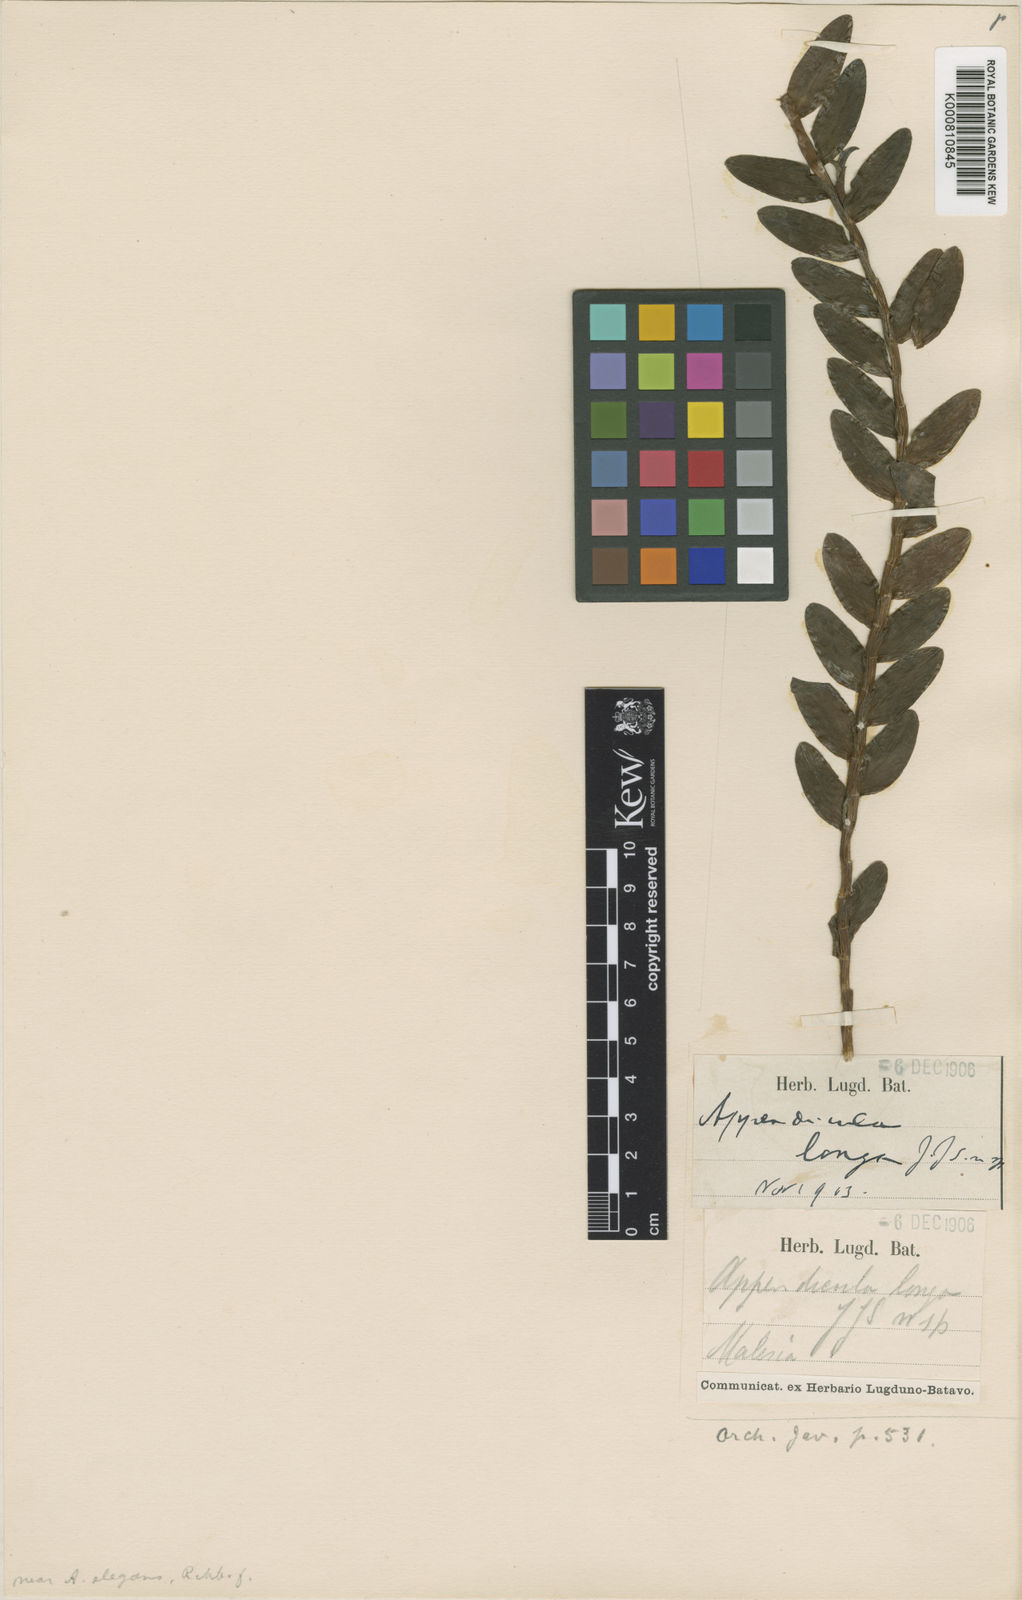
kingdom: Plantae
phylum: Tracheophyta
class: Liliopsida
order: Asparagales
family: Orchidaceae
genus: Appendicula
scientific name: Appendicula longa
